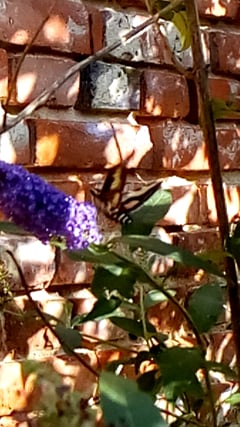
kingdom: Animalia
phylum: Arthropoda
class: Insecta
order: Lepidoptera
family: Sphingidae
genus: Hyles
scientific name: Hyles gallii
